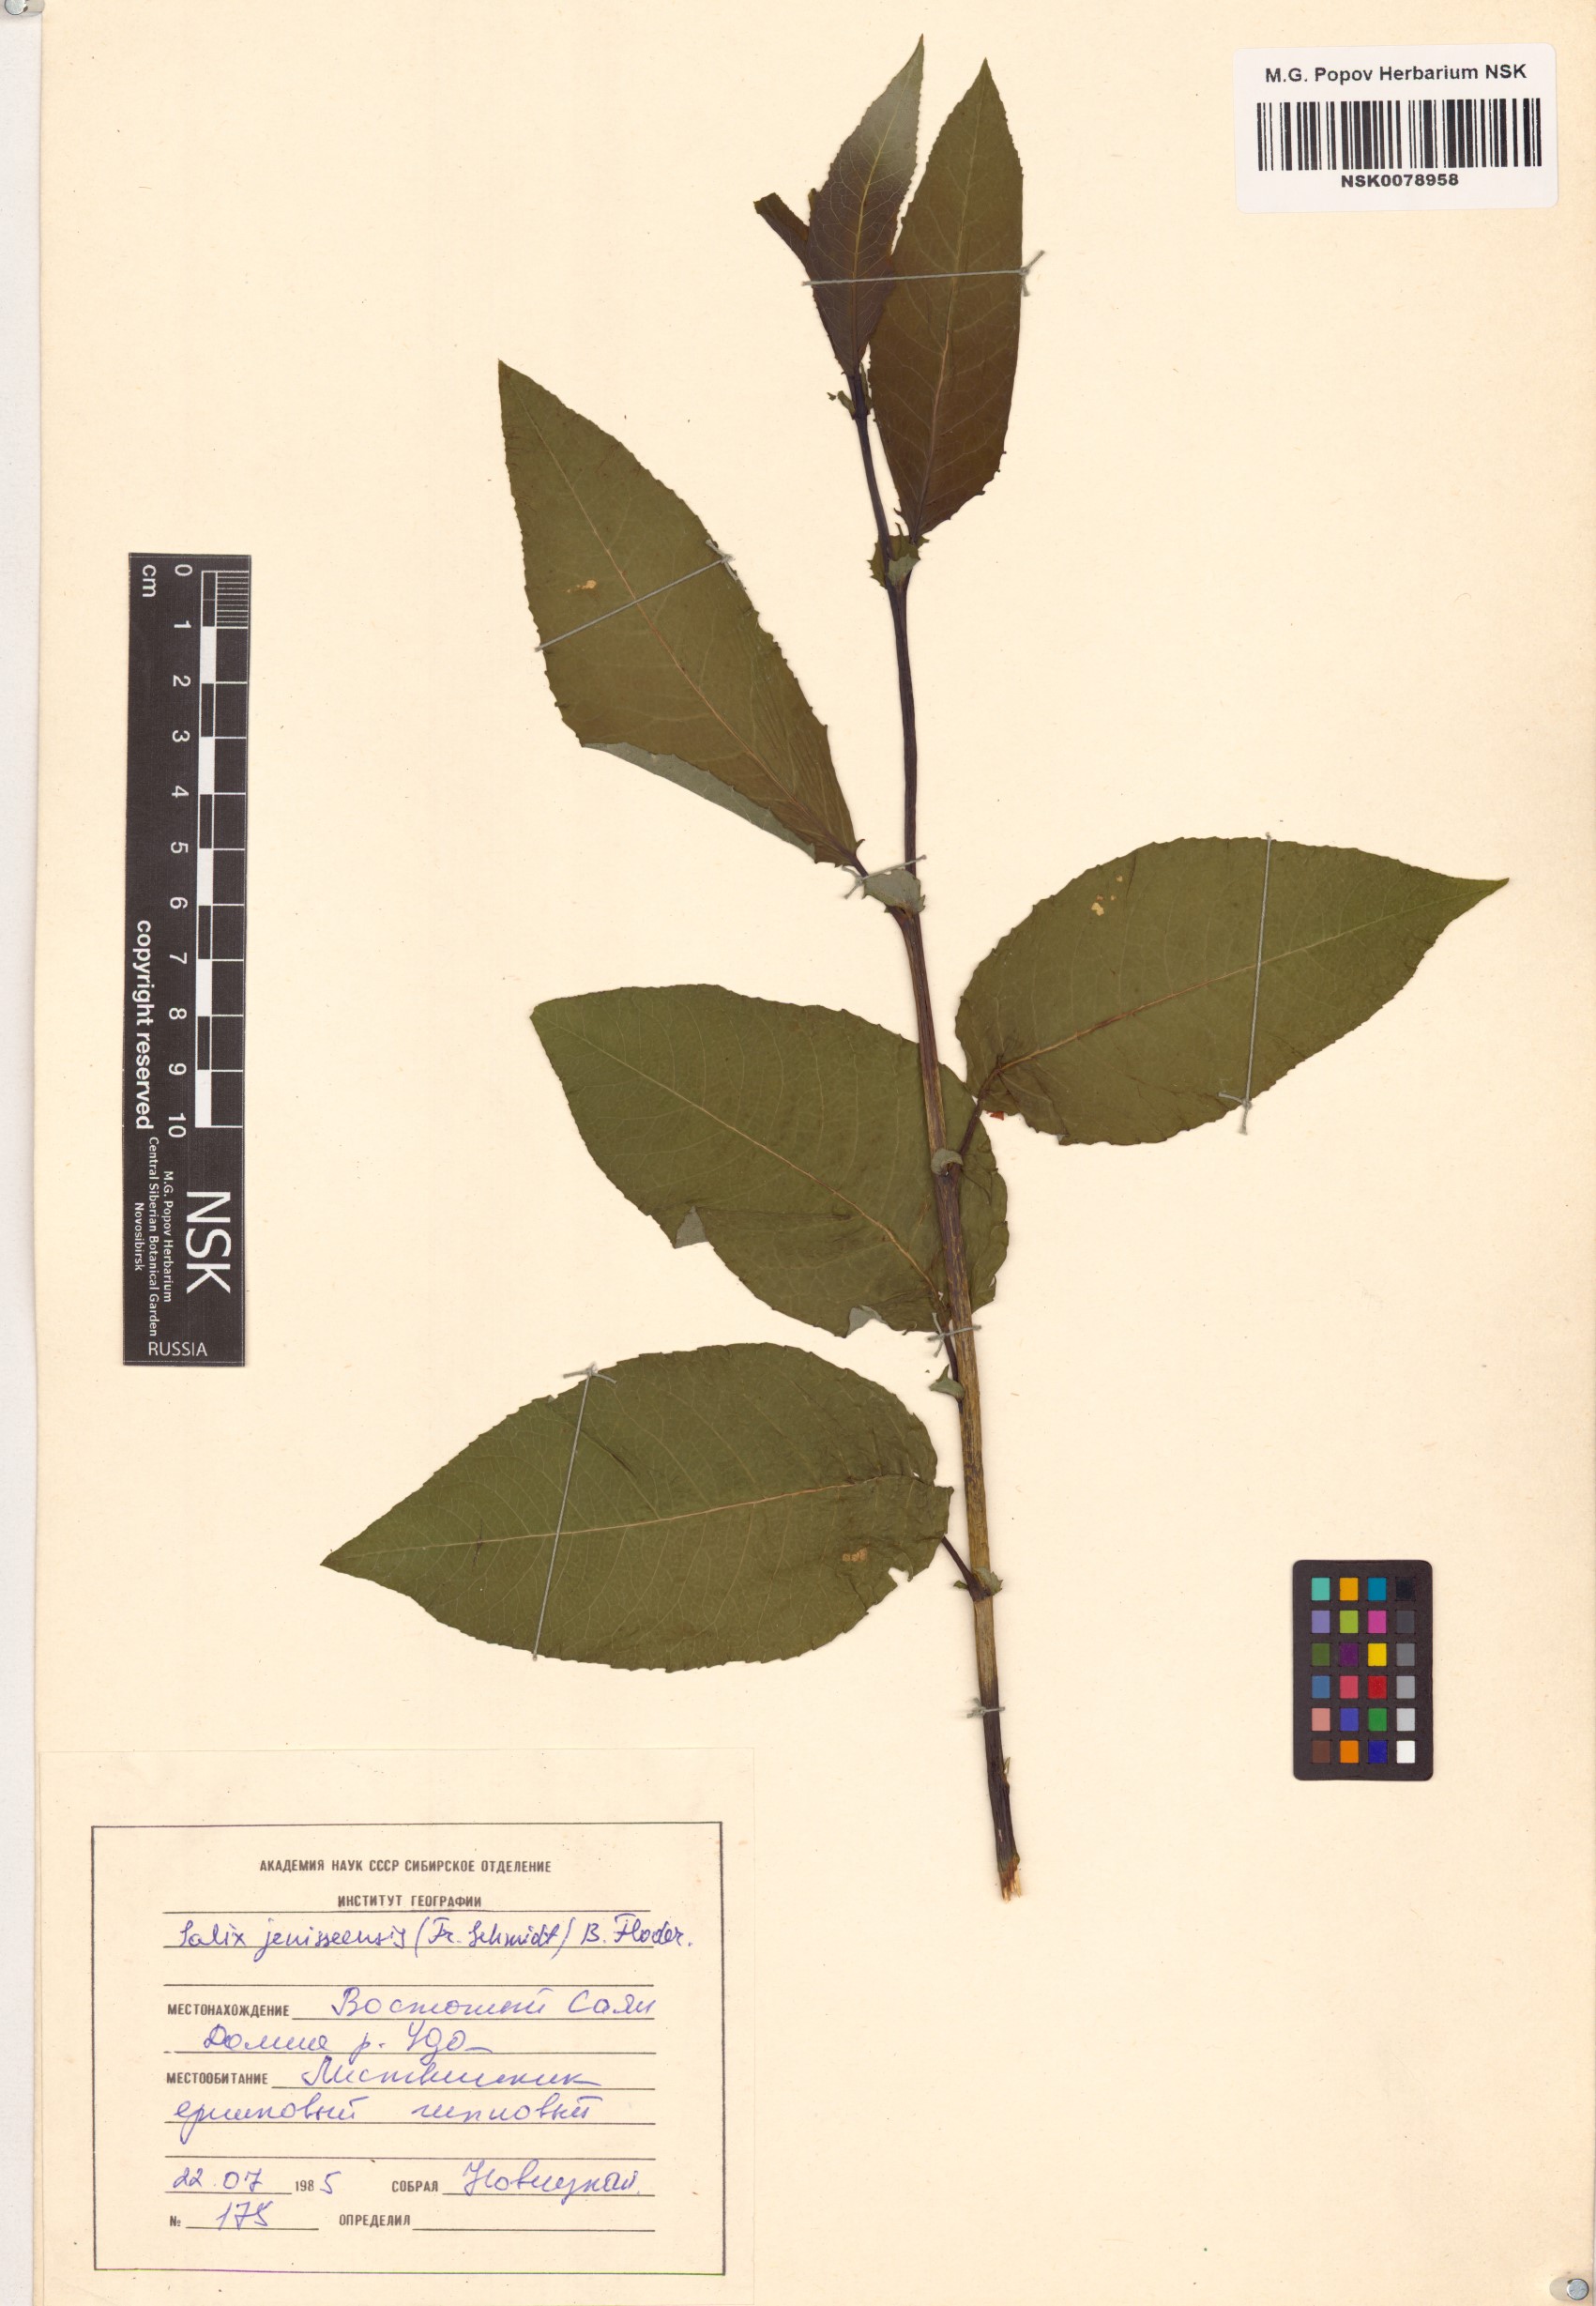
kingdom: Plantae
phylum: Tracheophyta
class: Magnoliopsida
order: Malpighiales
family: Salicaceae
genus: Salix
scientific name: Salix jenisseensis
